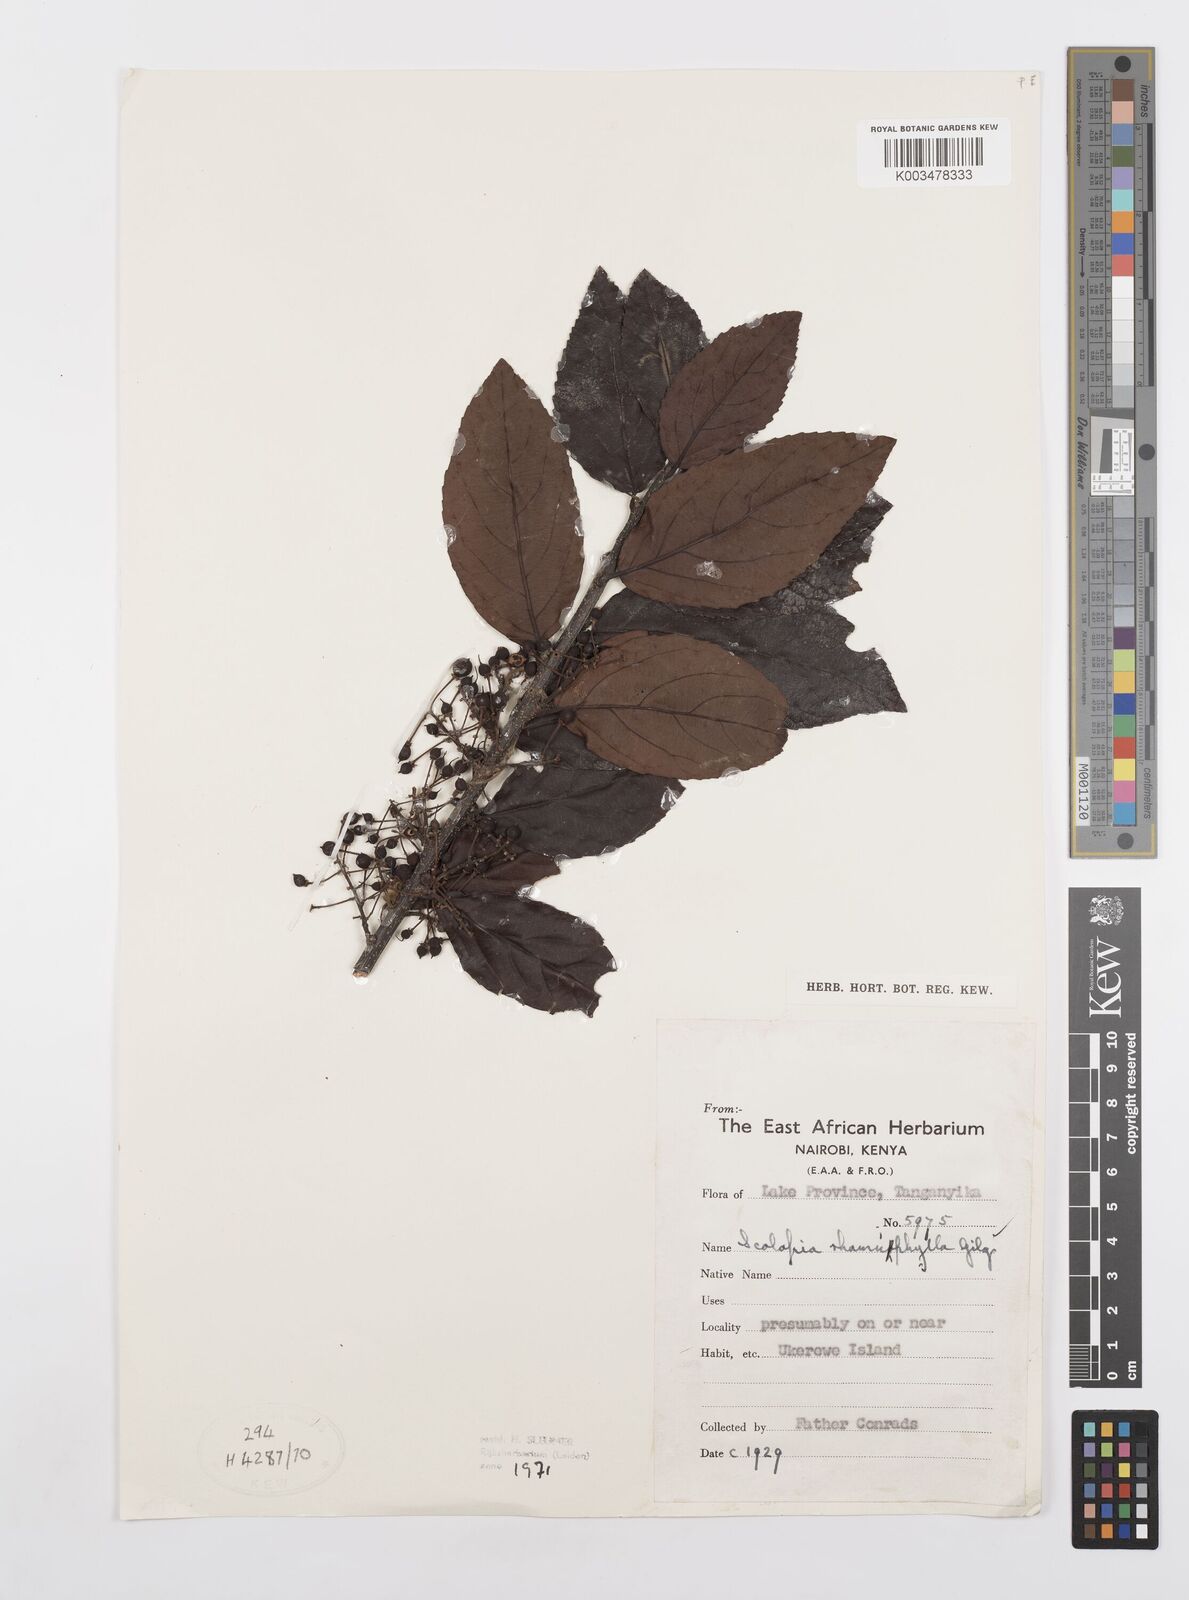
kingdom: Plantae
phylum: Tracheophyta
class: Magnoliopsida
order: Malpighiales
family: Salicaceae
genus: Scolopia
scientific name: Scolopia rhamniphylla
